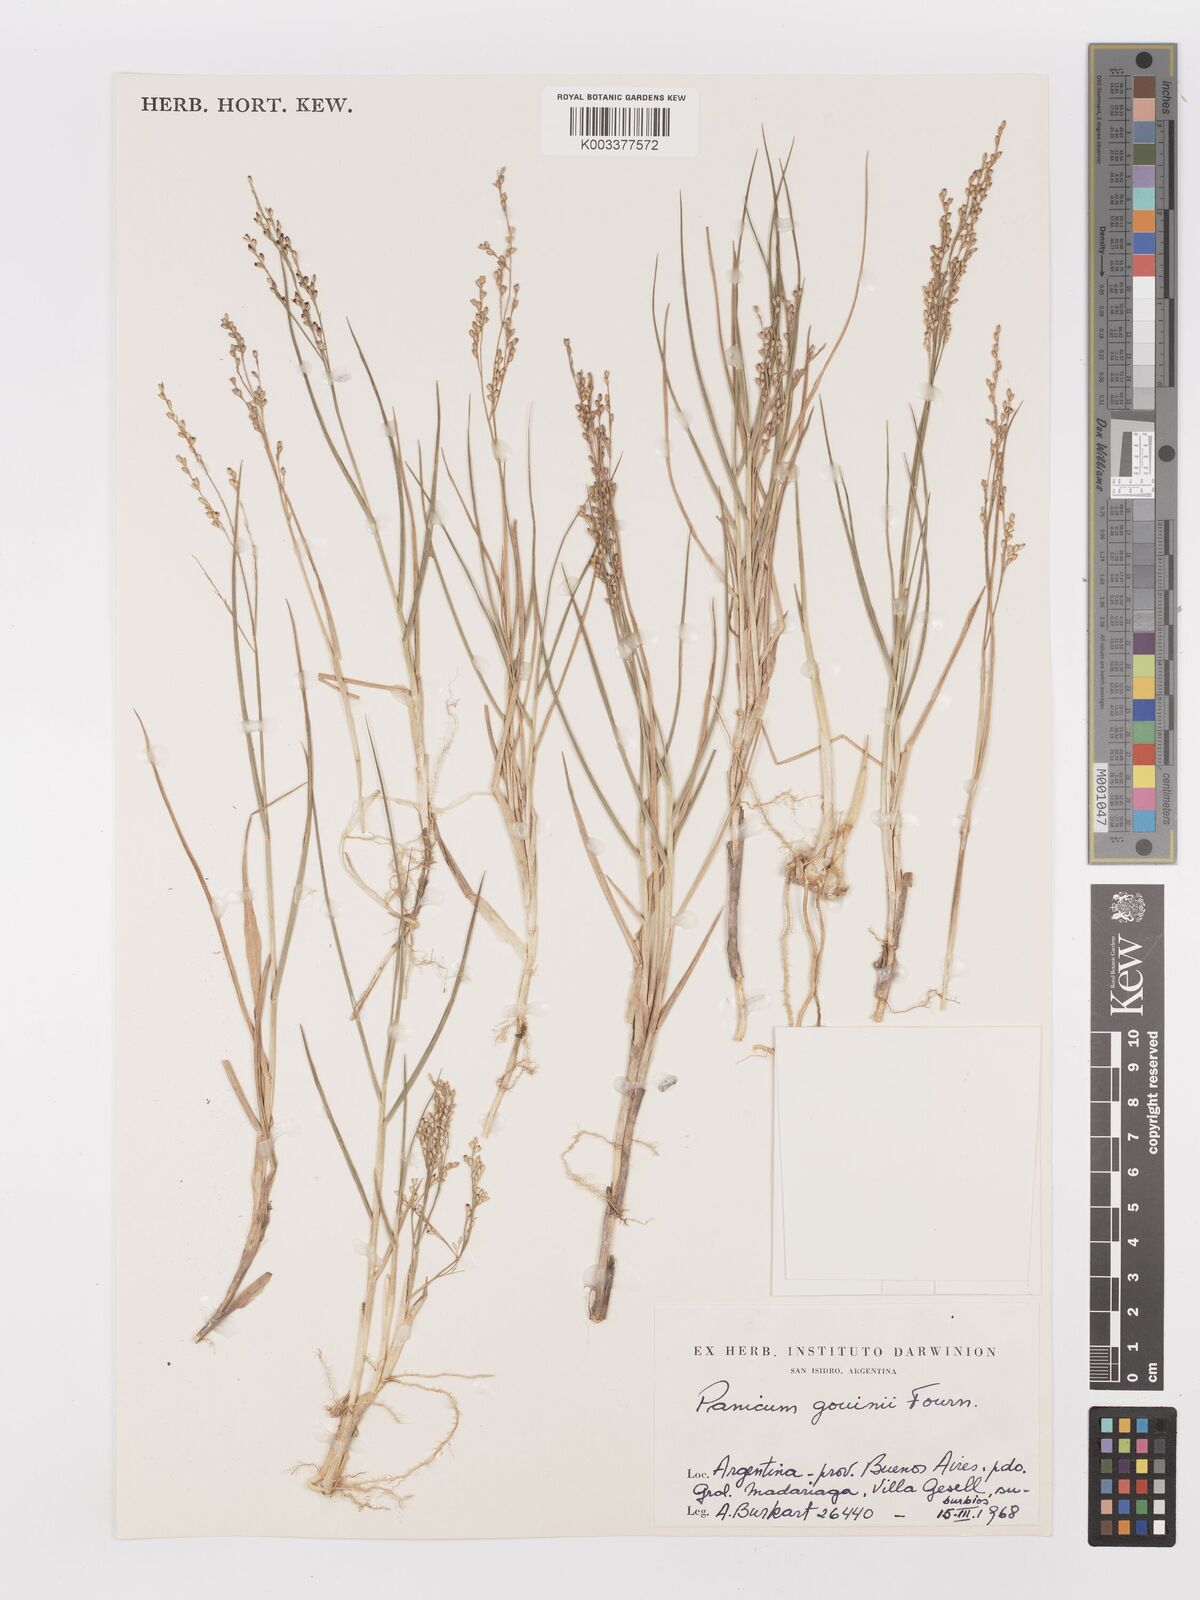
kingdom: Plantae
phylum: Tracheophyta
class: Liliopsida
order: Poales
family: Poaceae
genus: Urochloa
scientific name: Urochloa rudis
